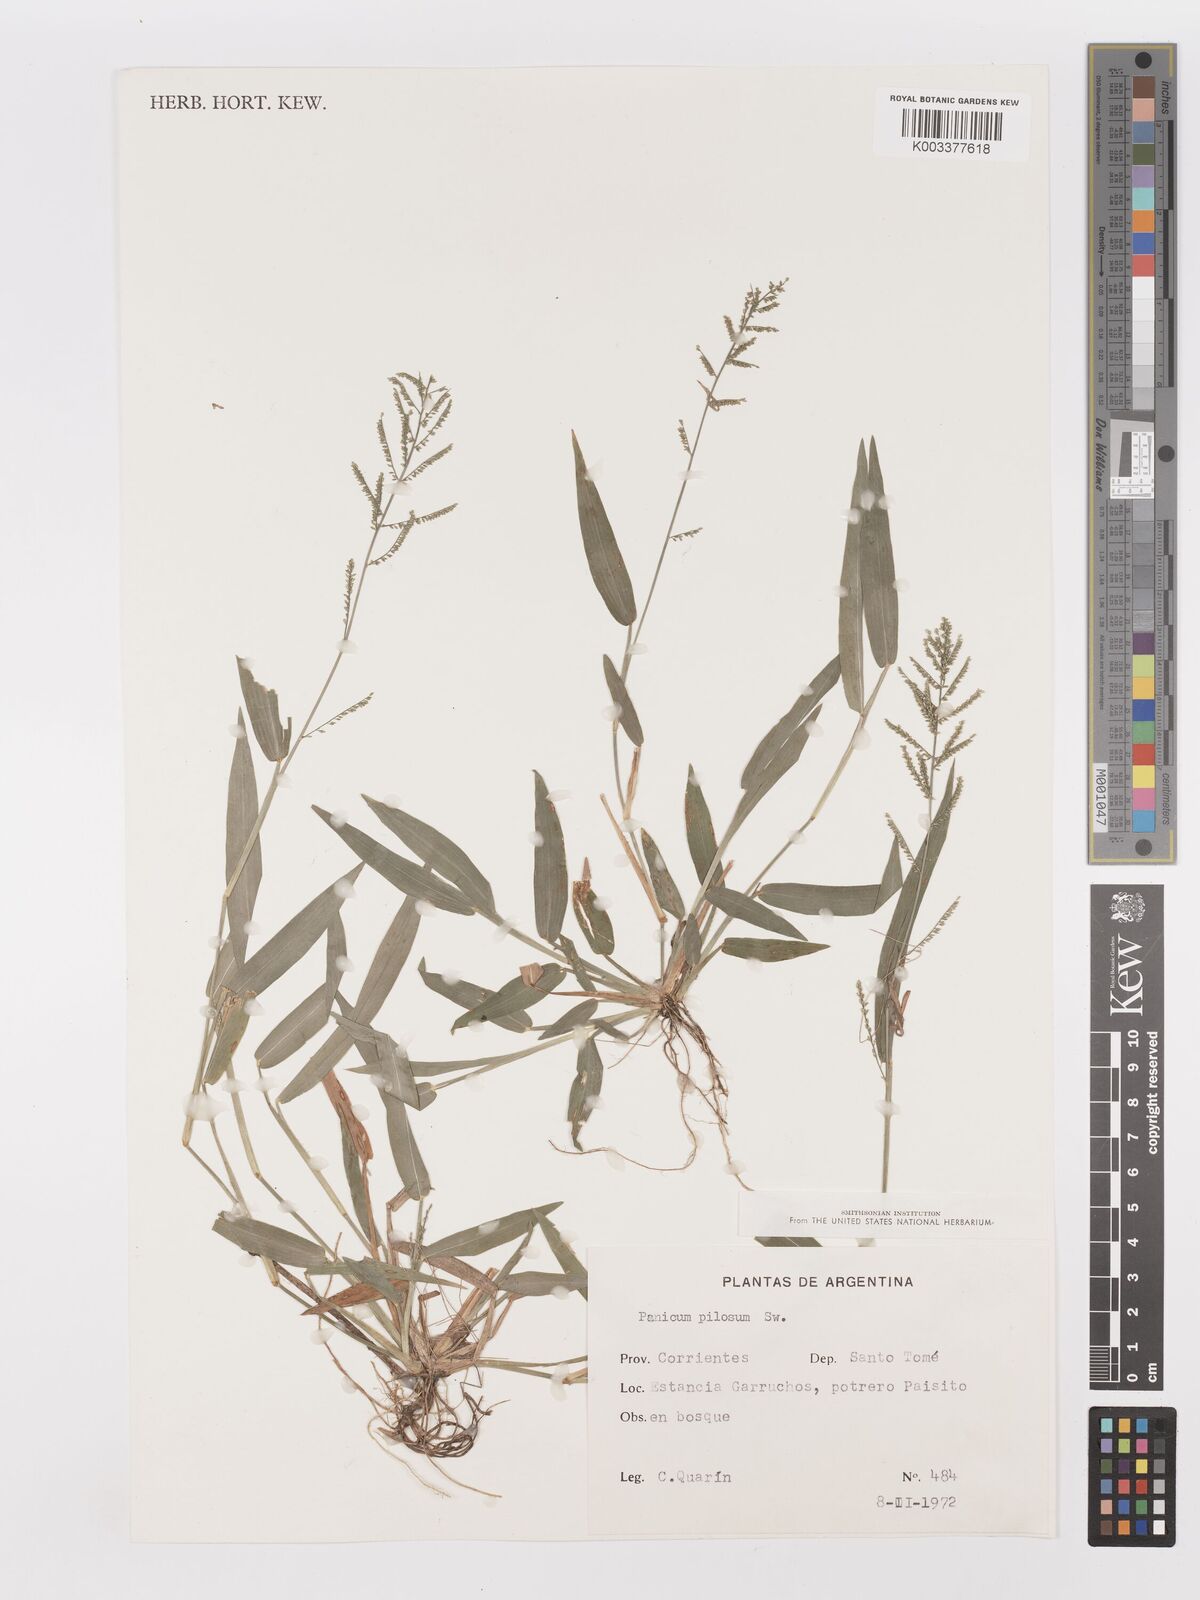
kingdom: Plantae
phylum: Tracheophyta
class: Liliopsida
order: Poales
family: Poaceae
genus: Panicum
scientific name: Panicum
